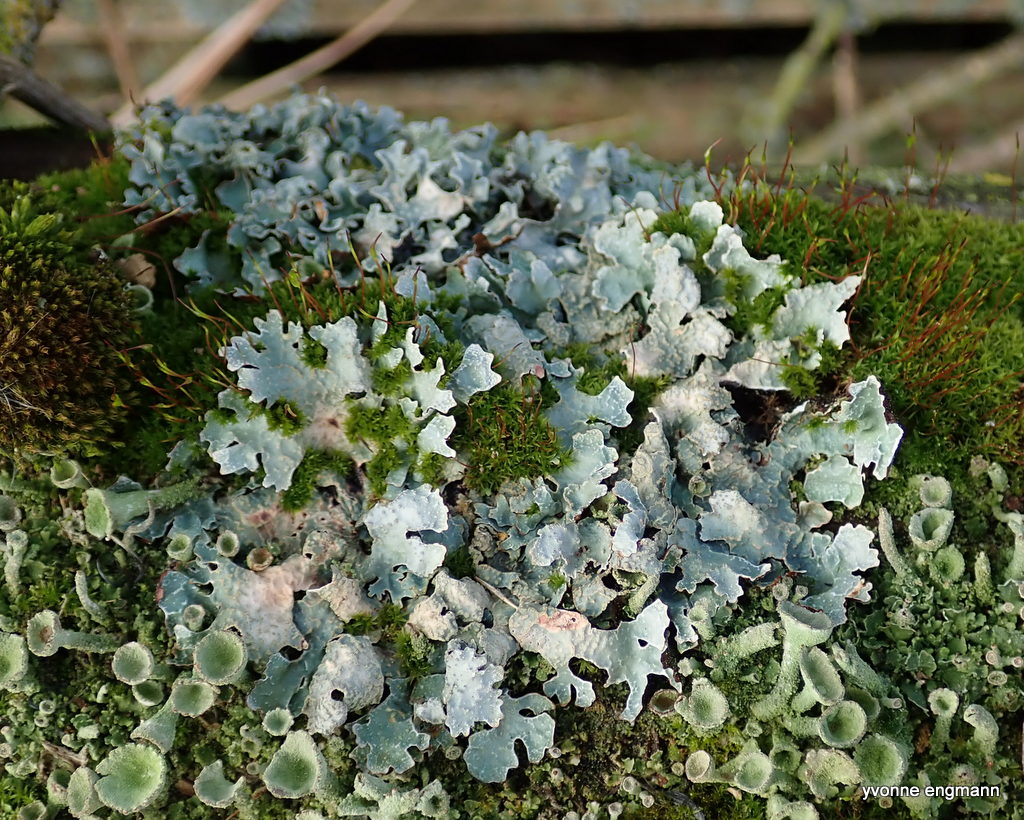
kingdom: Fungi
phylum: Ascomycota
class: Lecanoromycetes
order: Lecanorales
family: Parmeliaceae
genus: Parmelia
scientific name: Parmelia
